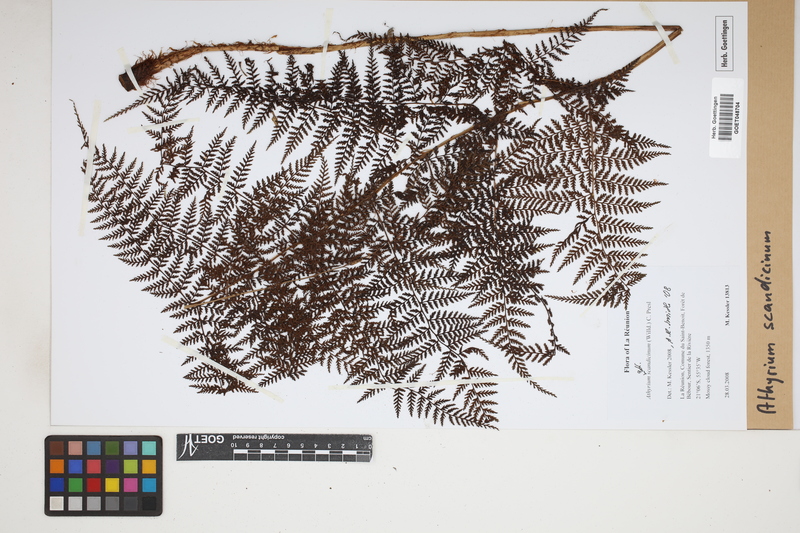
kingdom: Plantae
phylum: Tracheophyta
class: Polypodiopsida
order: Polypodiales
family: Athyriaceae
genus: Athyrium
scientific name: Athyrium scandicinum
